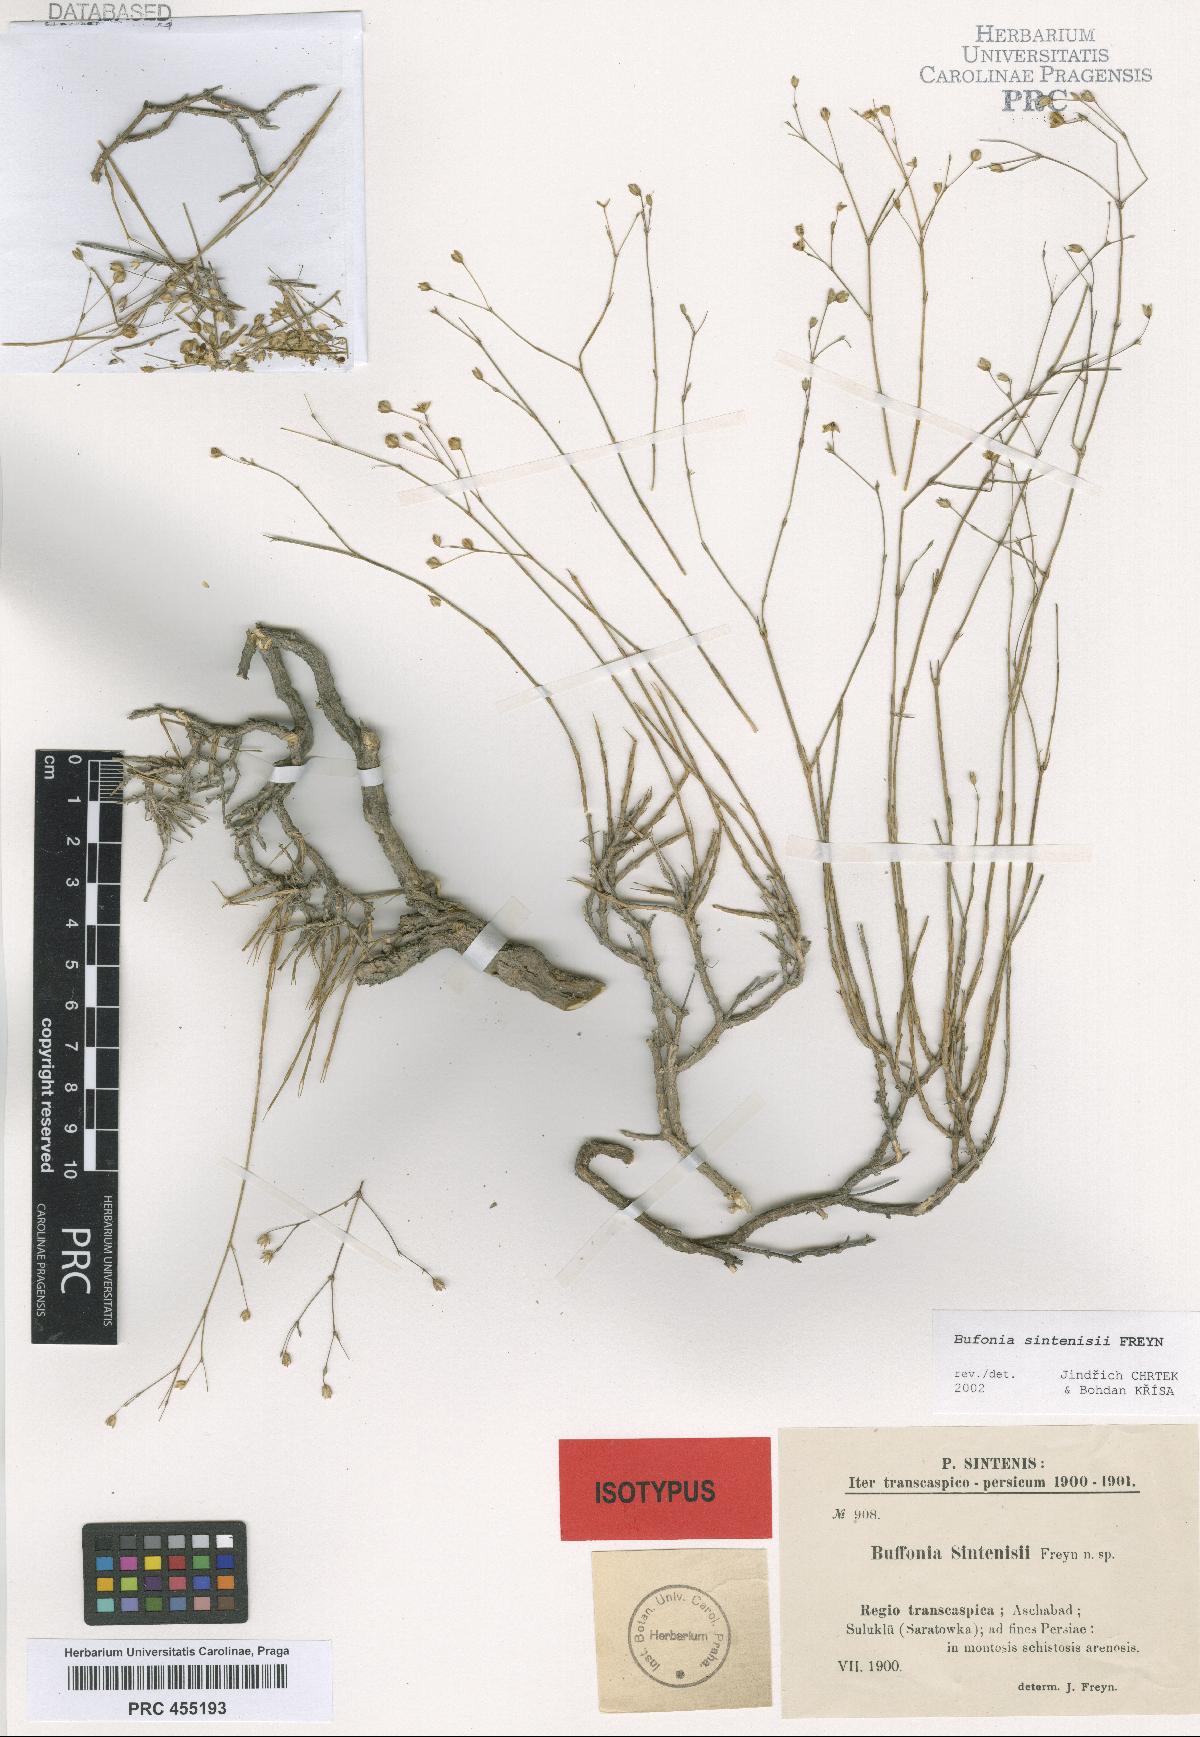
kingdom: Plantae
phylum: Tracheophyta
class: Magnoliopsida
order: Caryophyllales
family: Caryophyllaceae
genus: Bufonia
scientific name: Bufonia sintenisii
